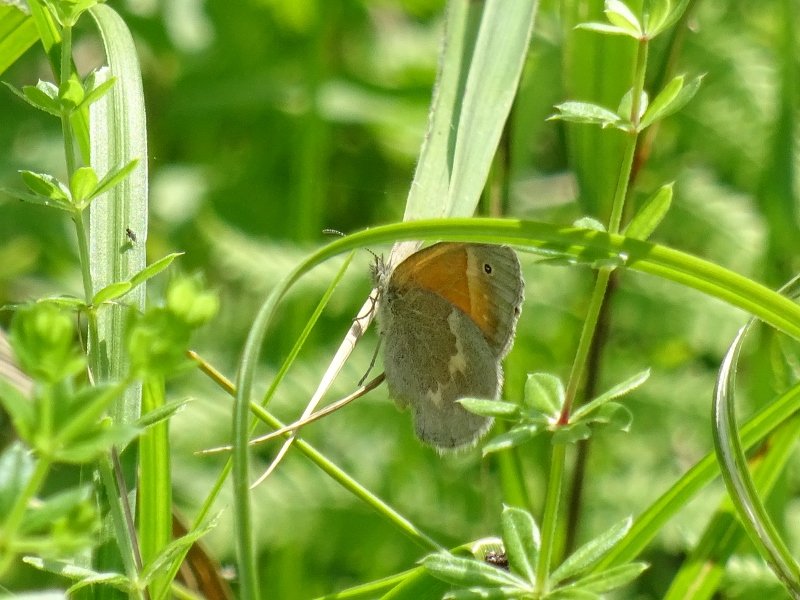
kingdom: Animalia
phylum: Arthropoda
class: Insecta
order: Lepidoptera
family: Nymphalidae
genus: Coenonympha
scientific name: Coenonympha tullia
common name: Large Heath
